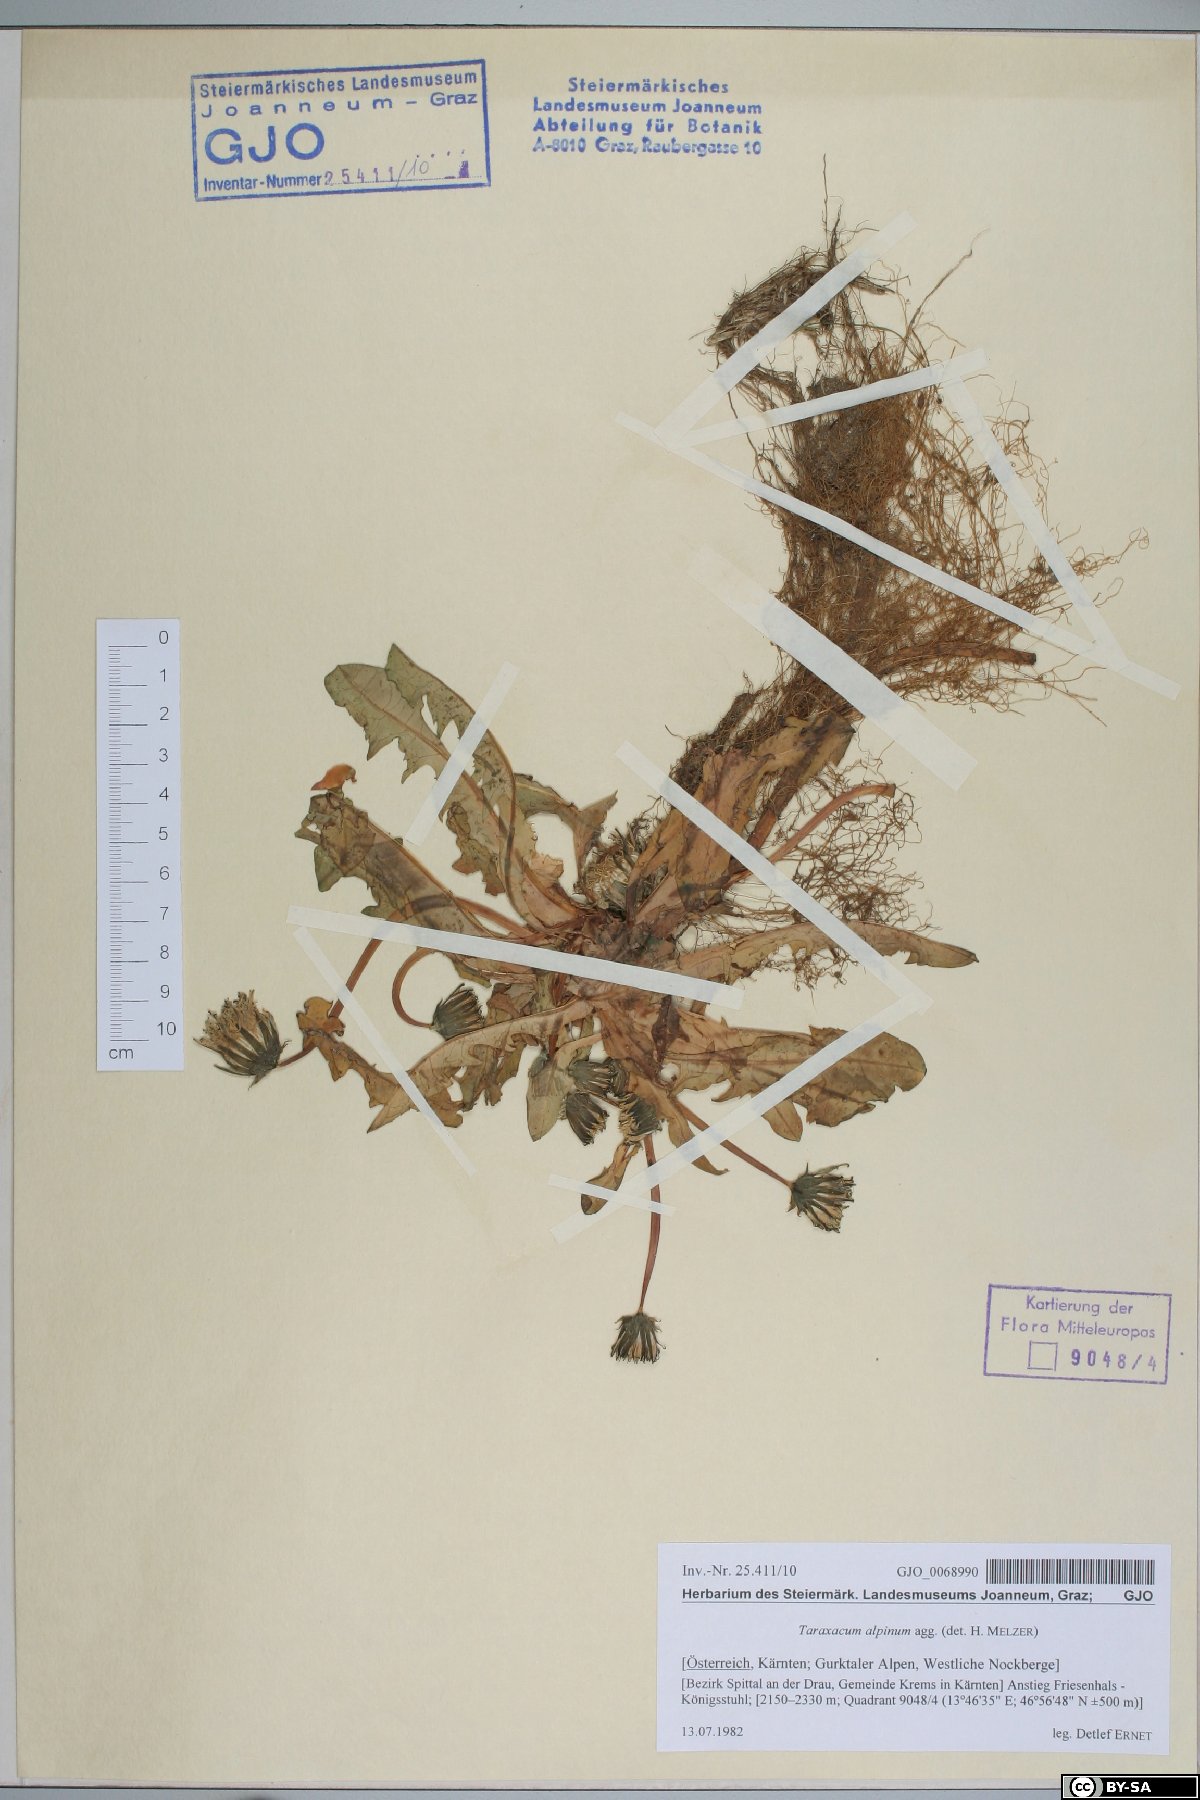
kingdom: Plantae
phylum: Tracheophyta
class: Magnoliopsida
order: Asterales
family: Asteraceae
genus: Taraxacum
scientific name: Taraxacum alpinum
